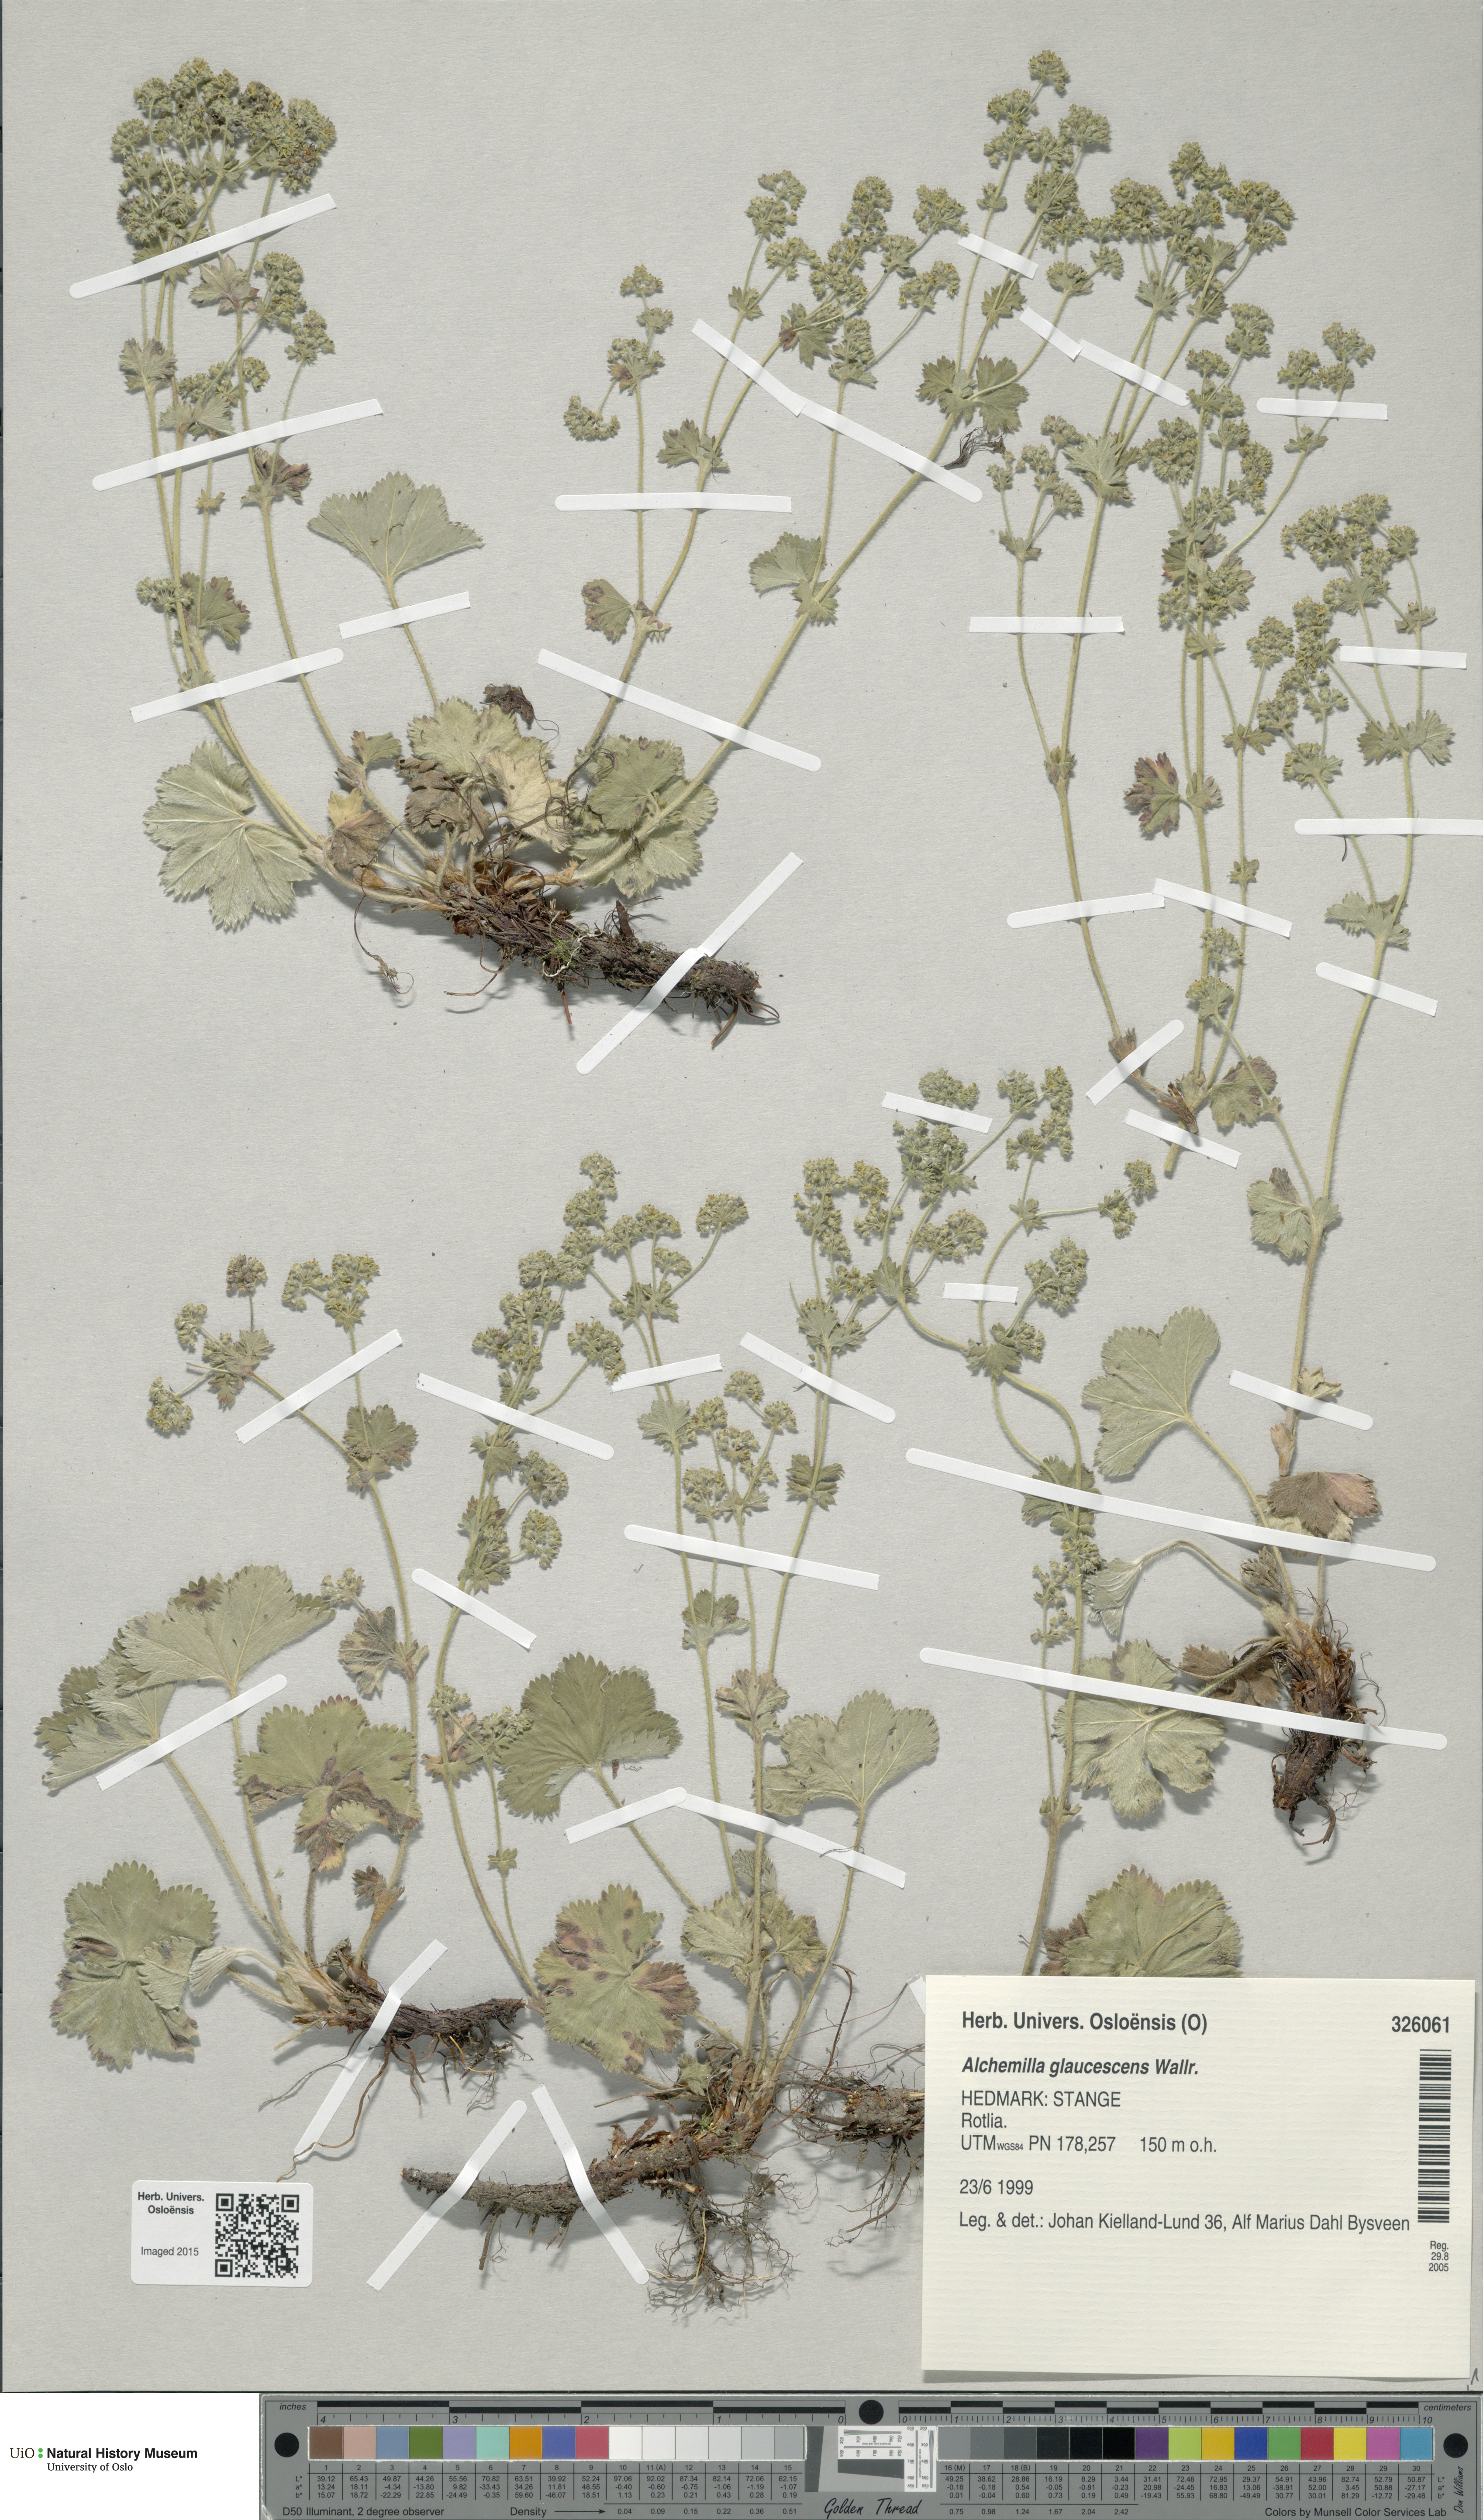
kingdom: Plantae
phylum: Tracheophyta
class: Magnoliopsida
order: Rosales
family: Rosaceae
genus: Alchemilla
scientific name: Alchemilla glaucescens
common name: Silky lady's mantle
